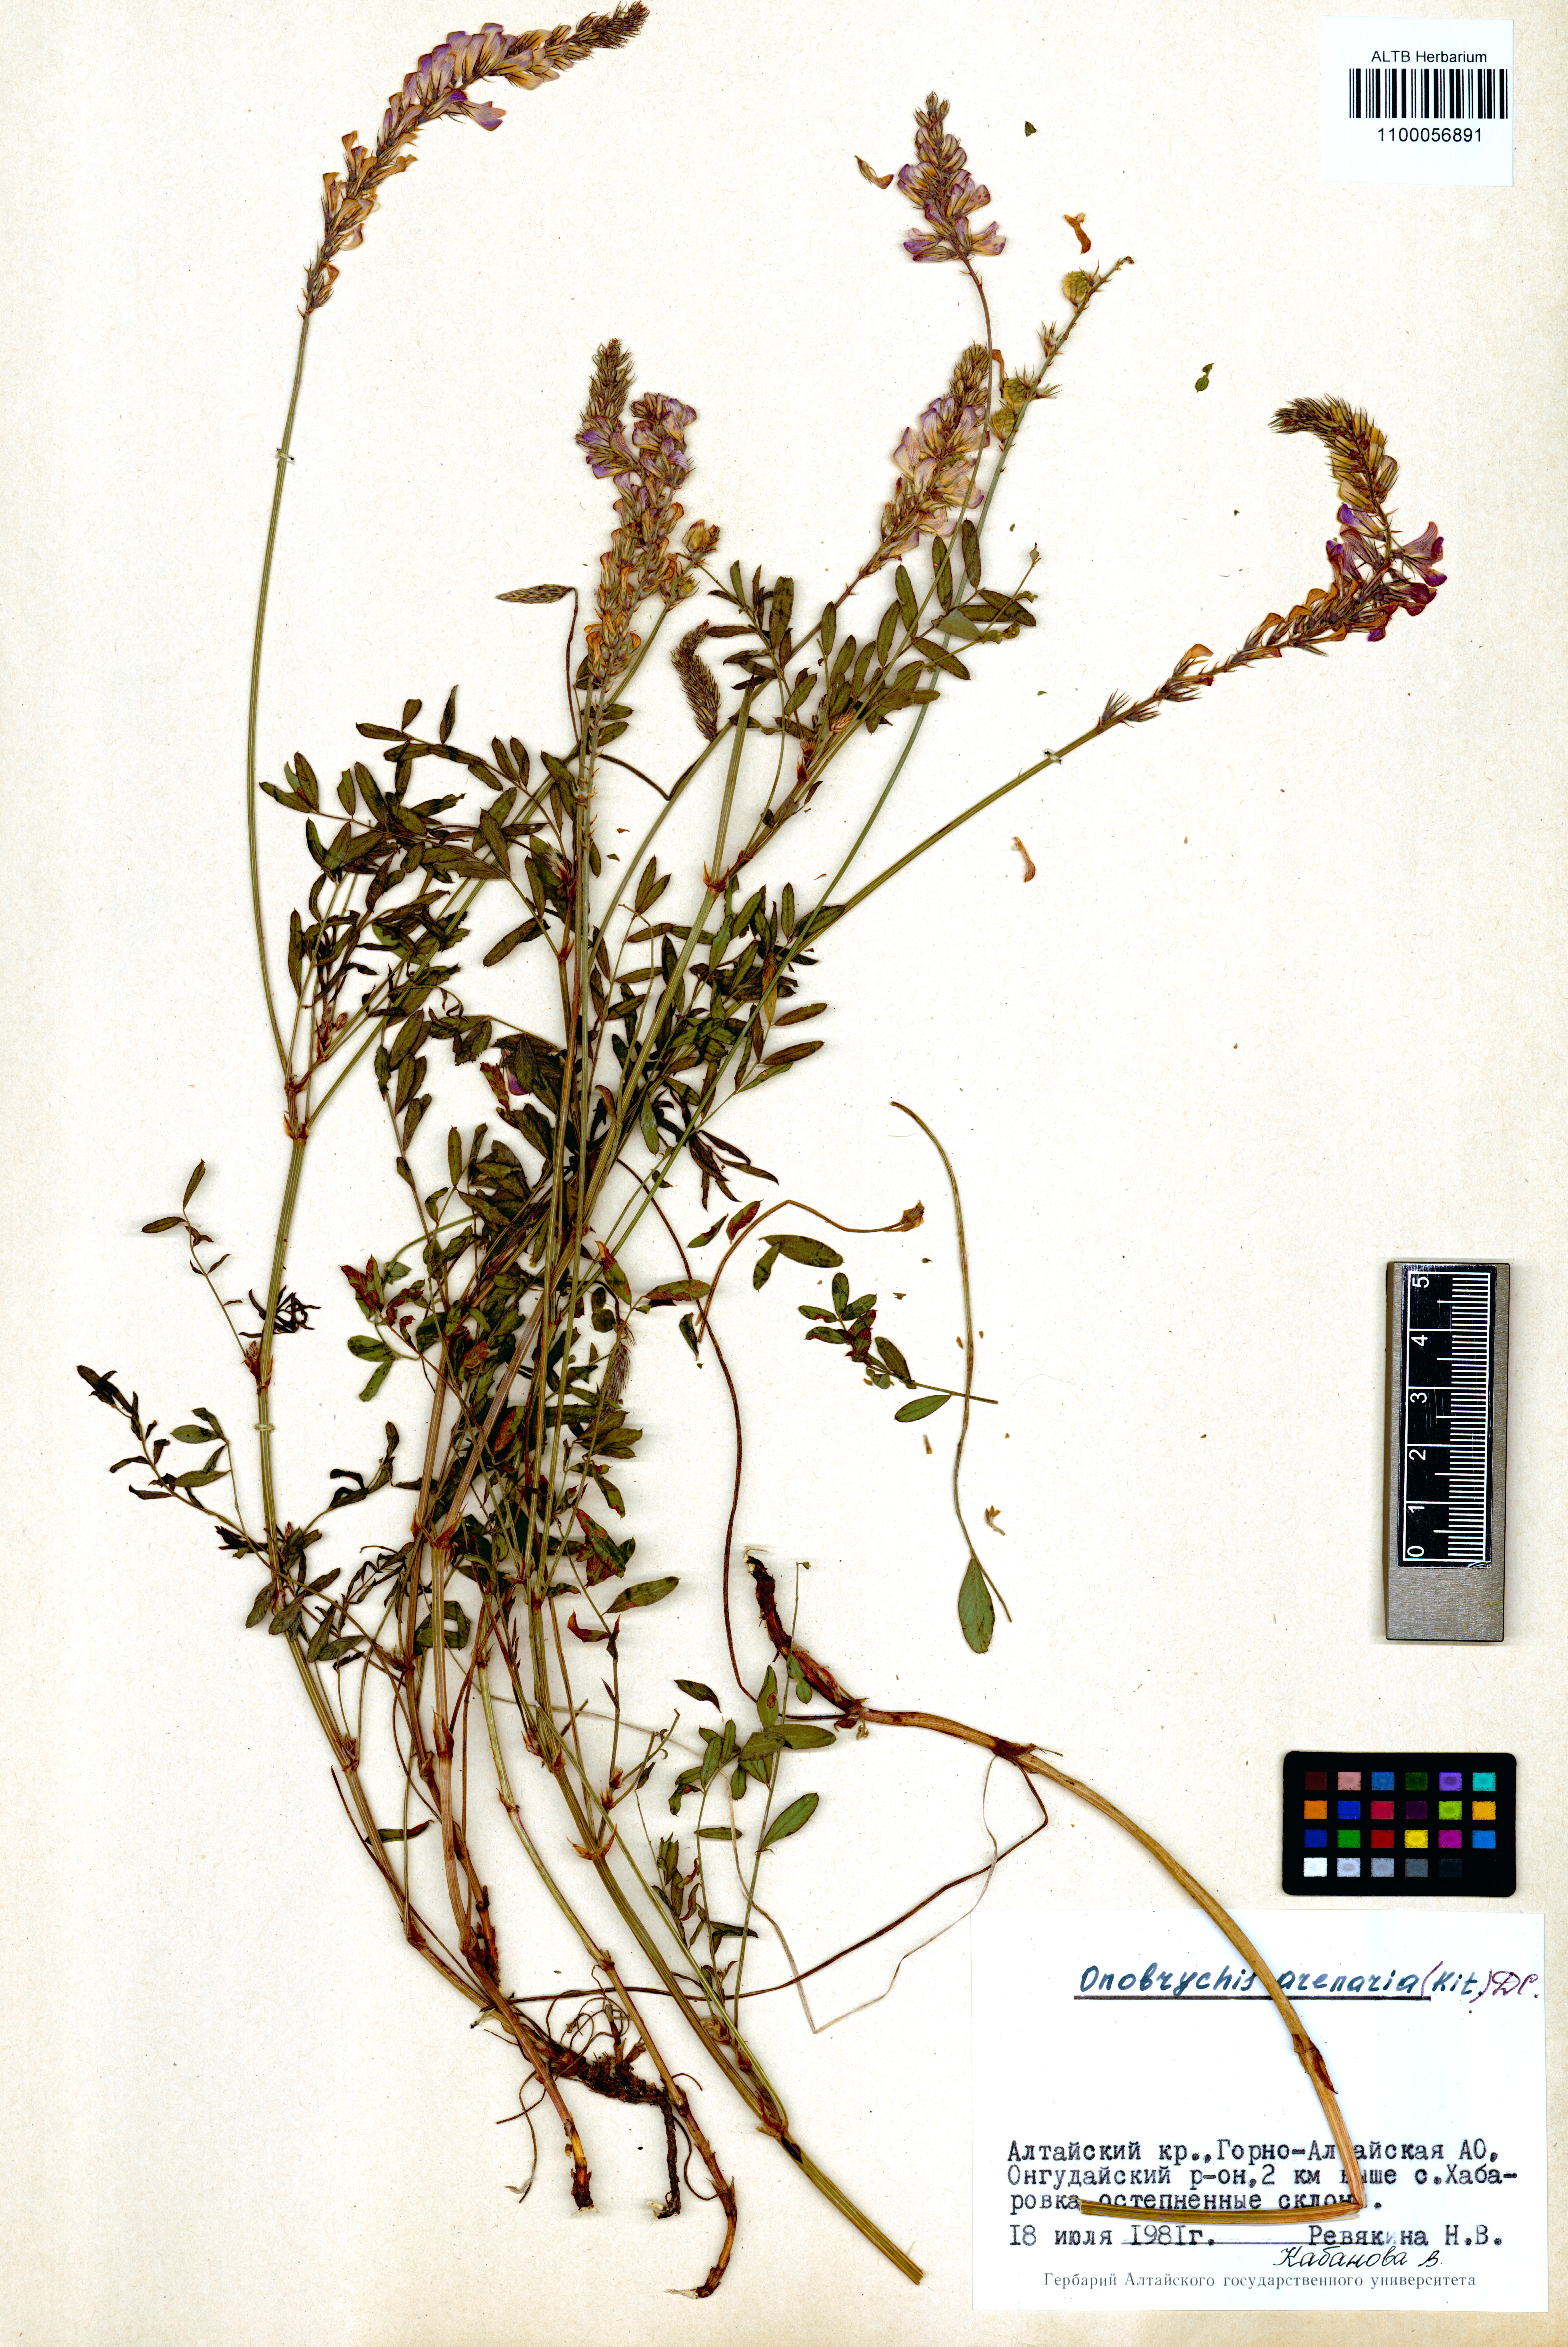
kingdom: Plantae
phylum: Tracheophyta
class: Magnoliopsida
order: Fabales
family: Fabaceae
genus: Onobrychis
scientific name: Onobrychis arenaria
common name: Sand esparcet
